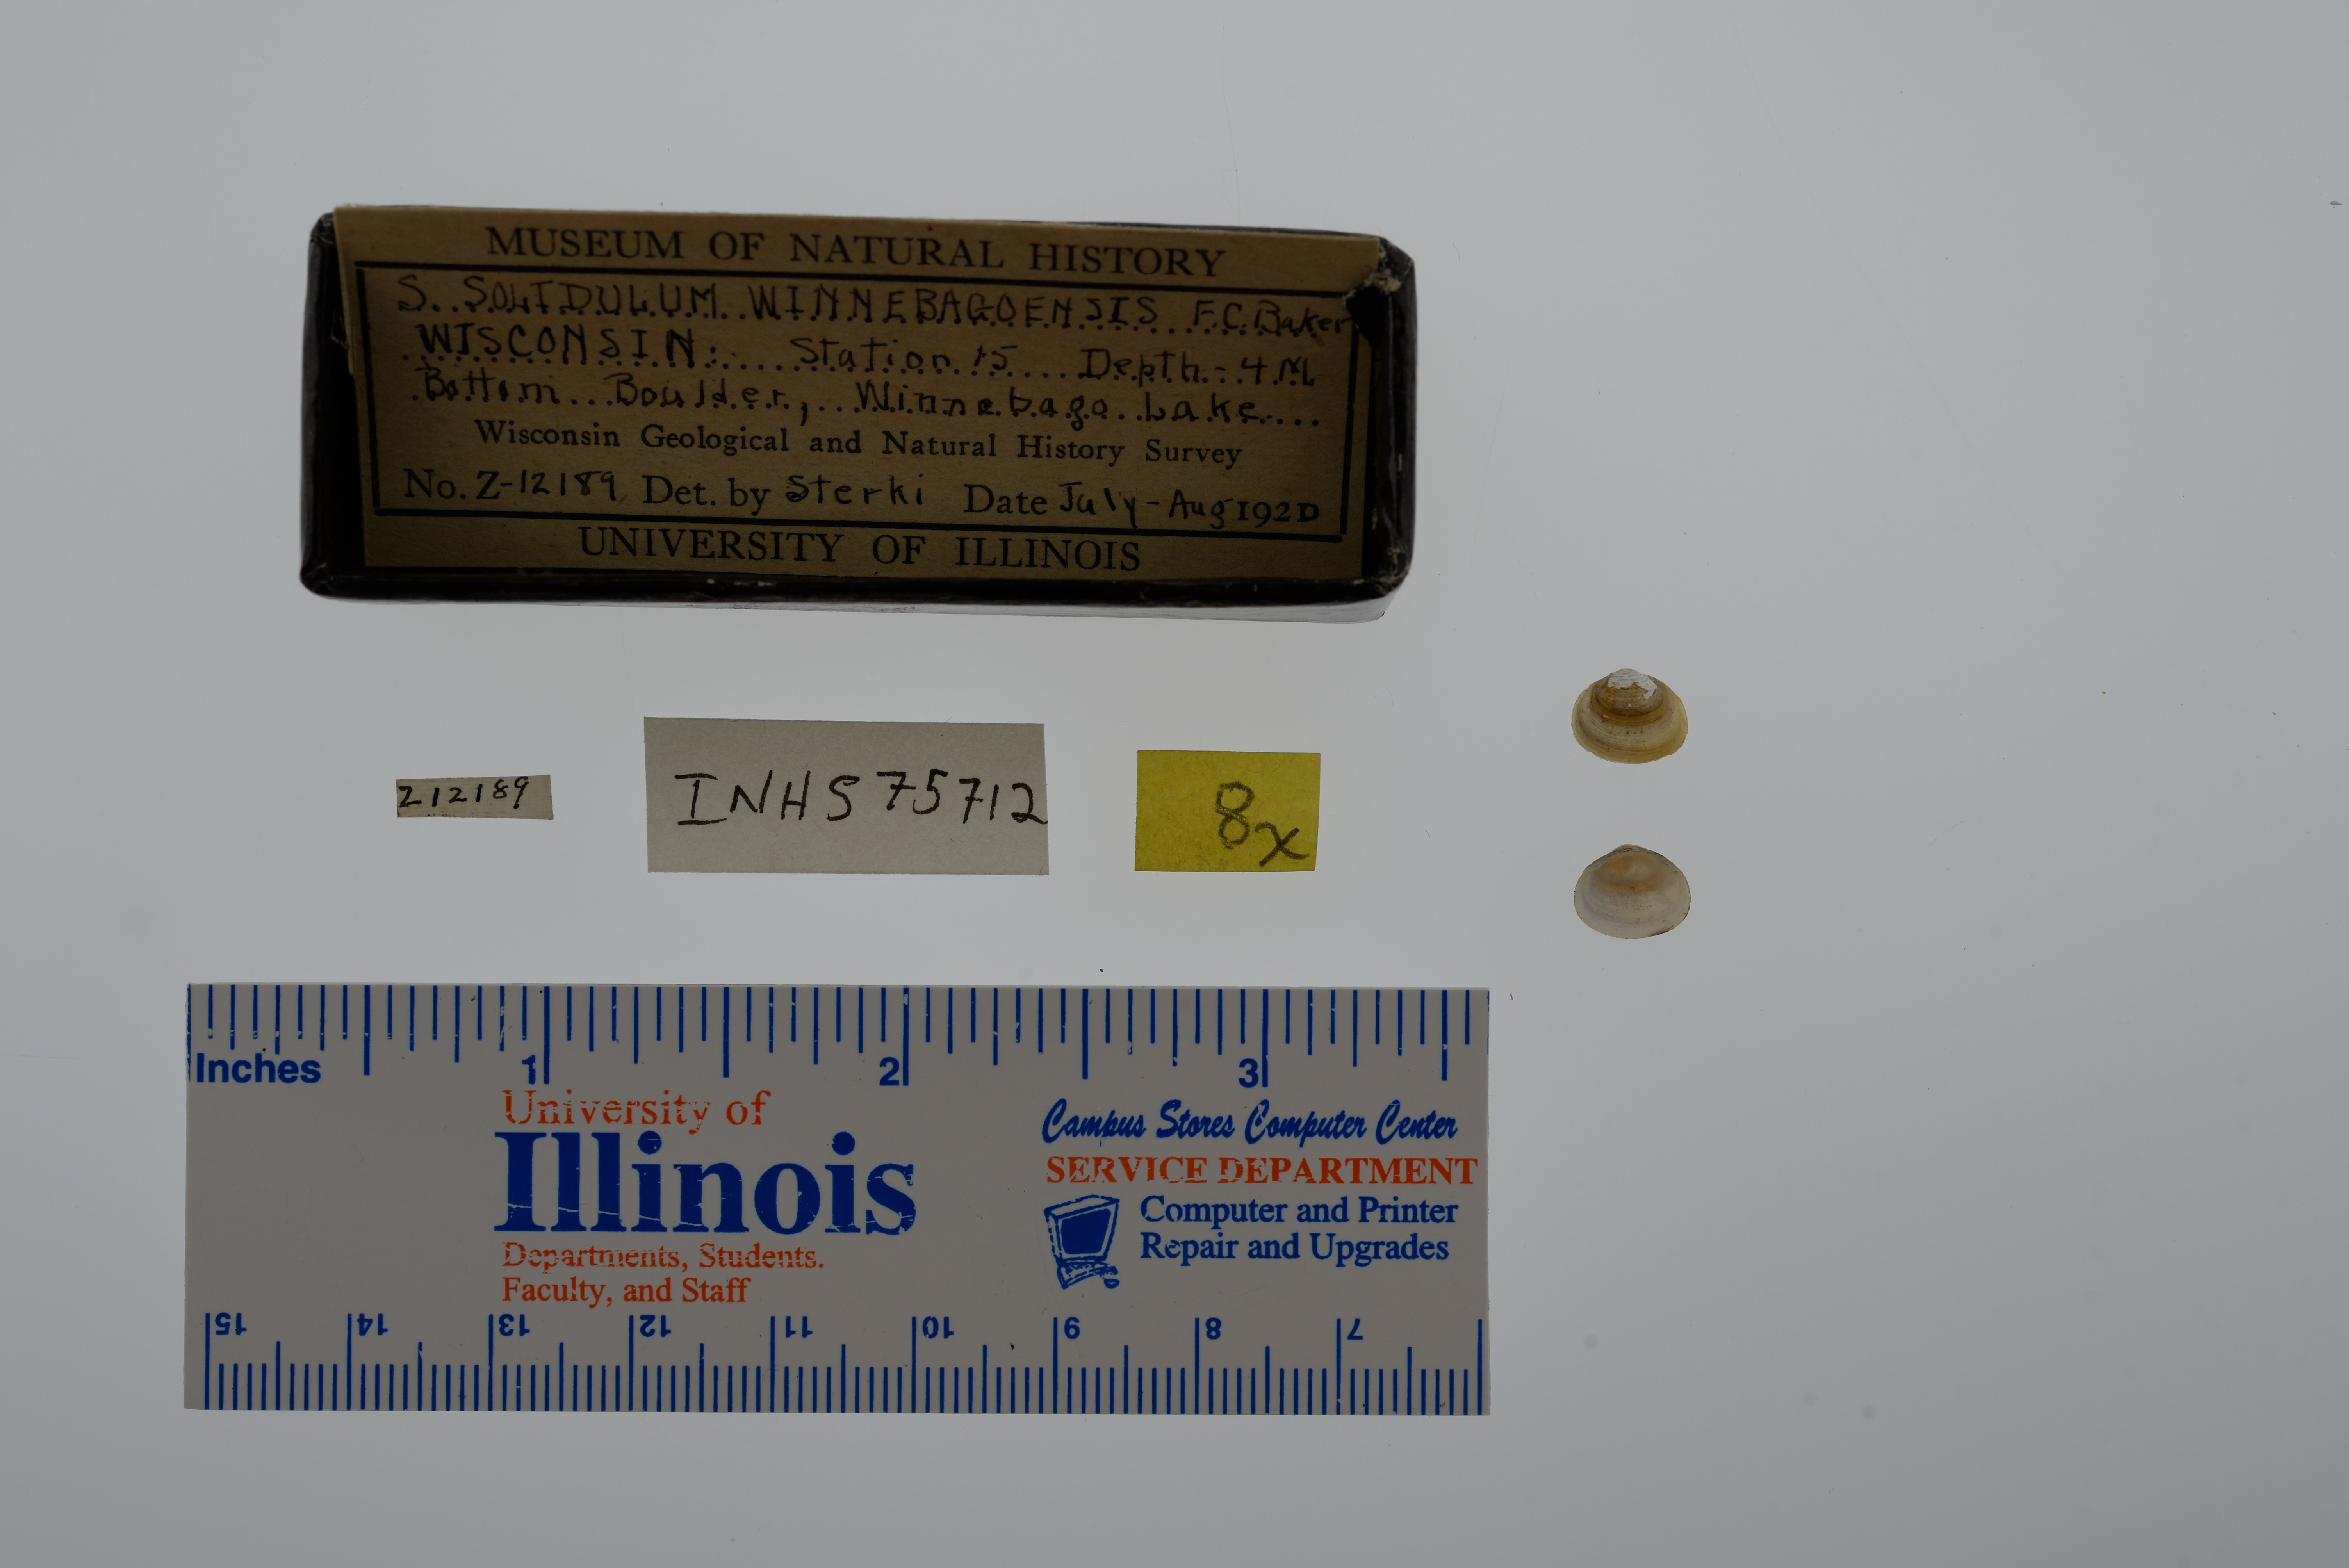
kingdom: Animalia
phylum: Mollusca
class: Bivalvia
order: Sphaeriida
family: Sphaeriidae
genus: Sphaerium
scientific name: Sphaerium striatinum
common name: Striated fingernailclam
